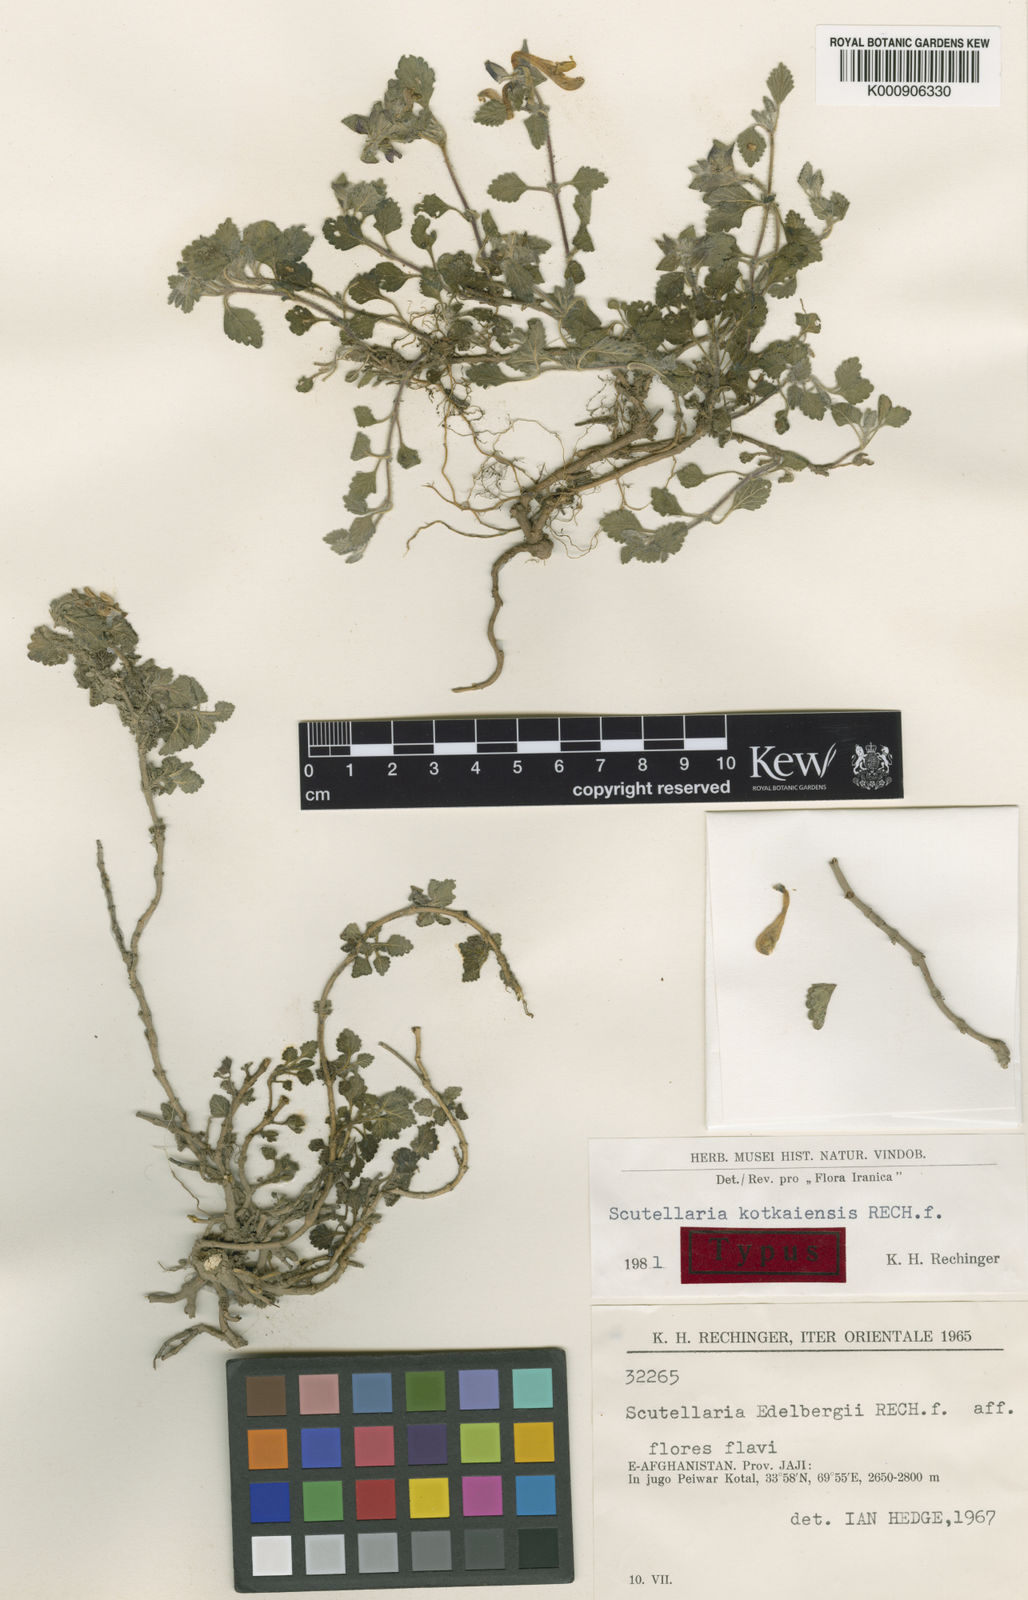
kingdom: Plantae
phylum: Tracheophyta
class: Magnoliopsida
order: Lamiales
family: Lamiaceae
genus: Scutellaria
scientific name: Scutellaria kotkaiensis
